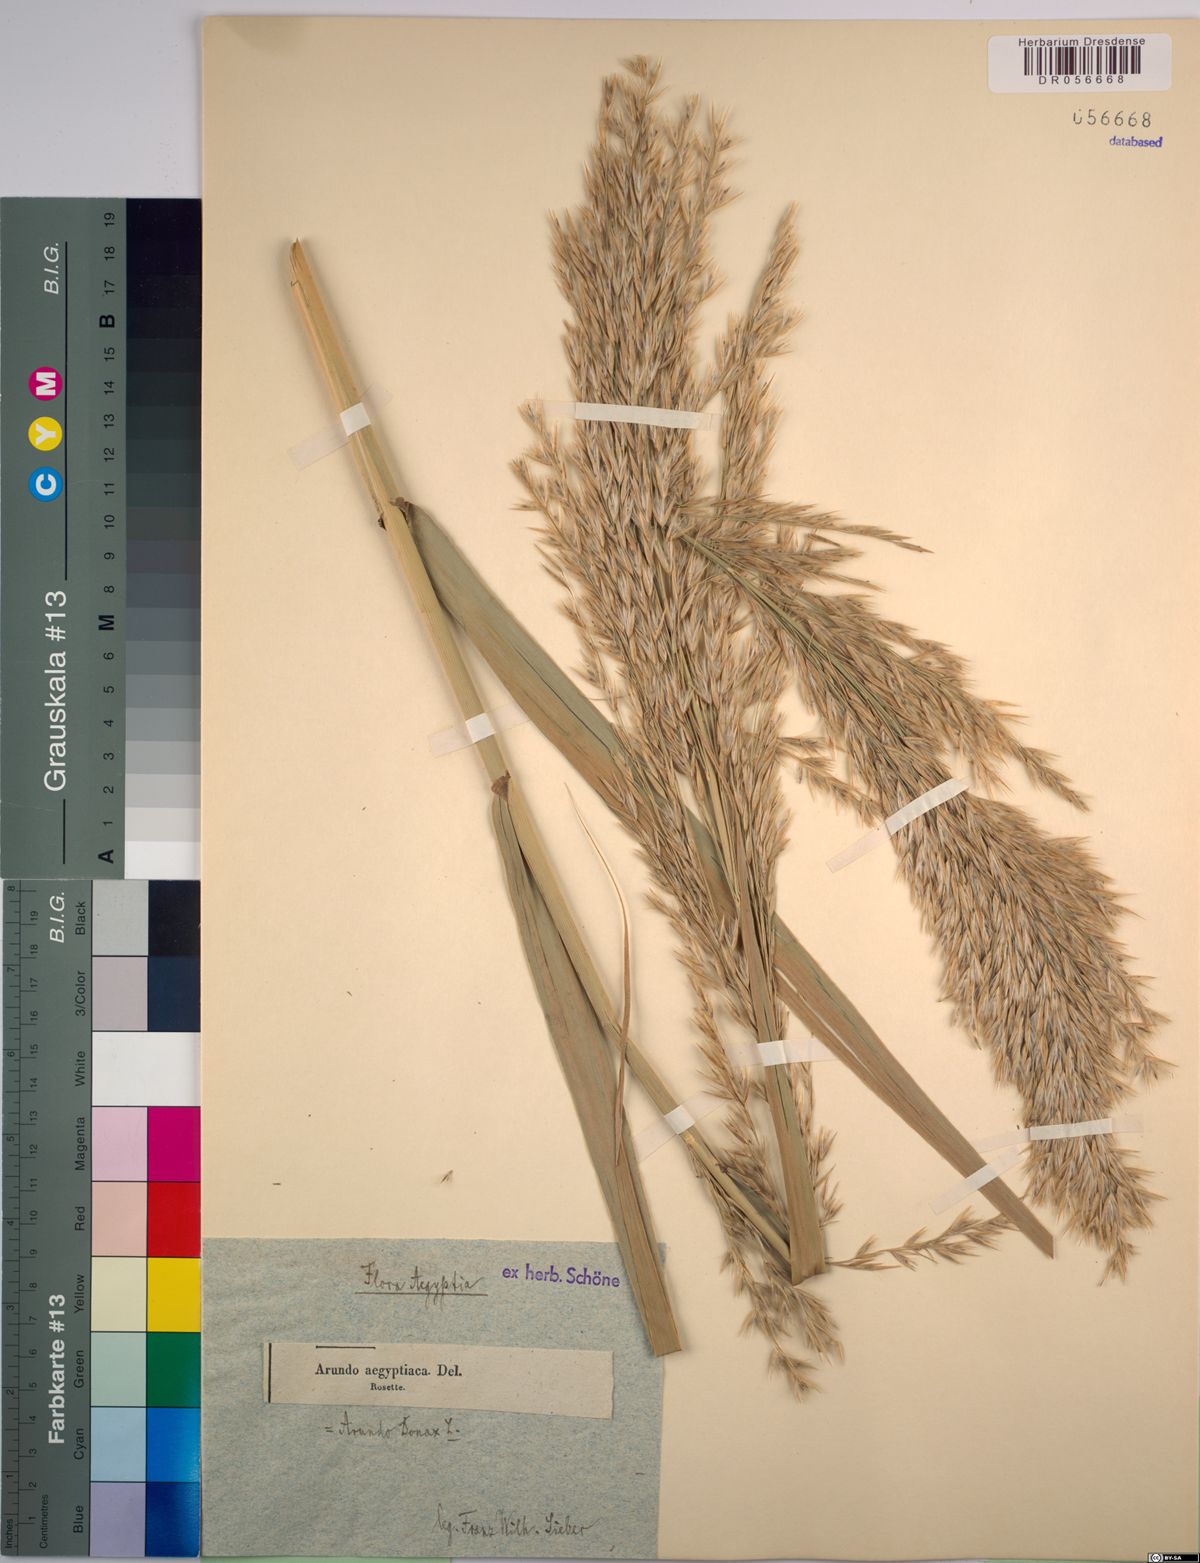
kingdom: Plantae
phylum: Tracheophyta
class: Liliopsida
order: Poales
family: Poaceae
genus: Arundo
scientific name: Arundo donax
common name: Giant reed
